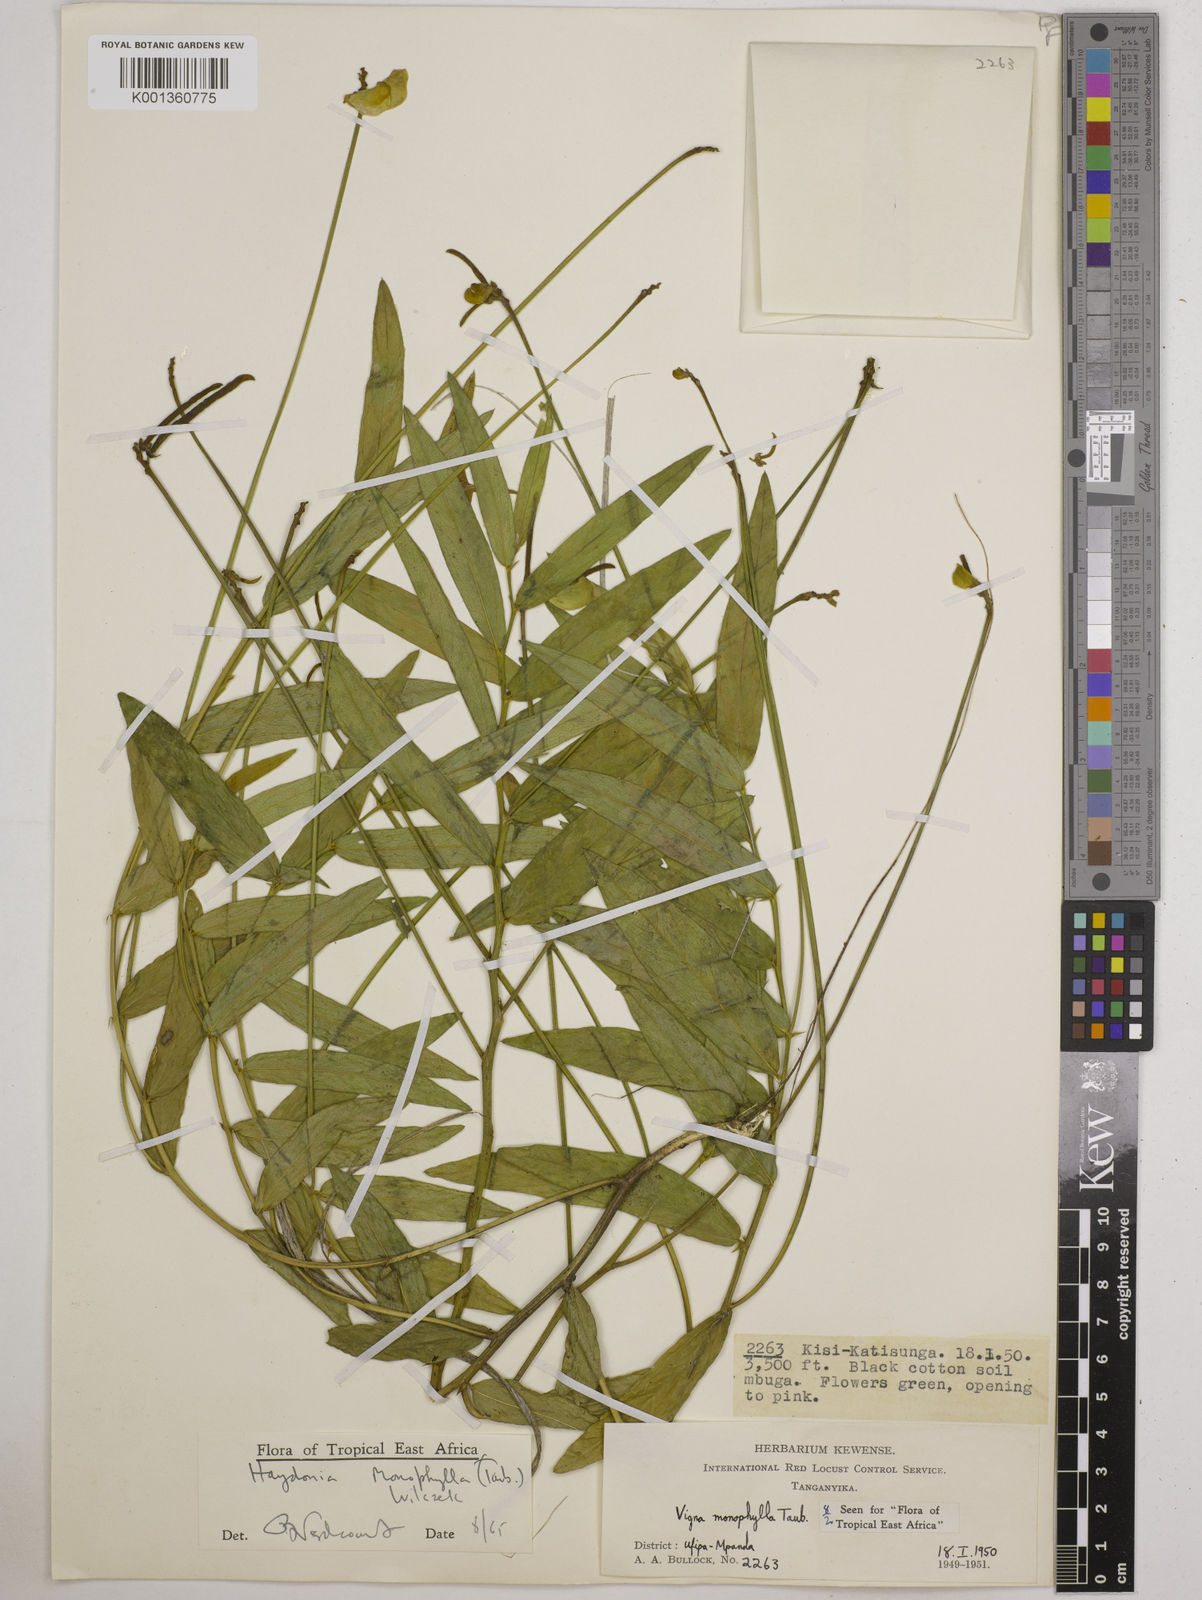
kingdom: Plantae
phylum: Tracheophyta
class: Magnoliopsida
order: Fabales
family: Fabaceae
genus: Vigna
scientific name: Vigna monophylla
